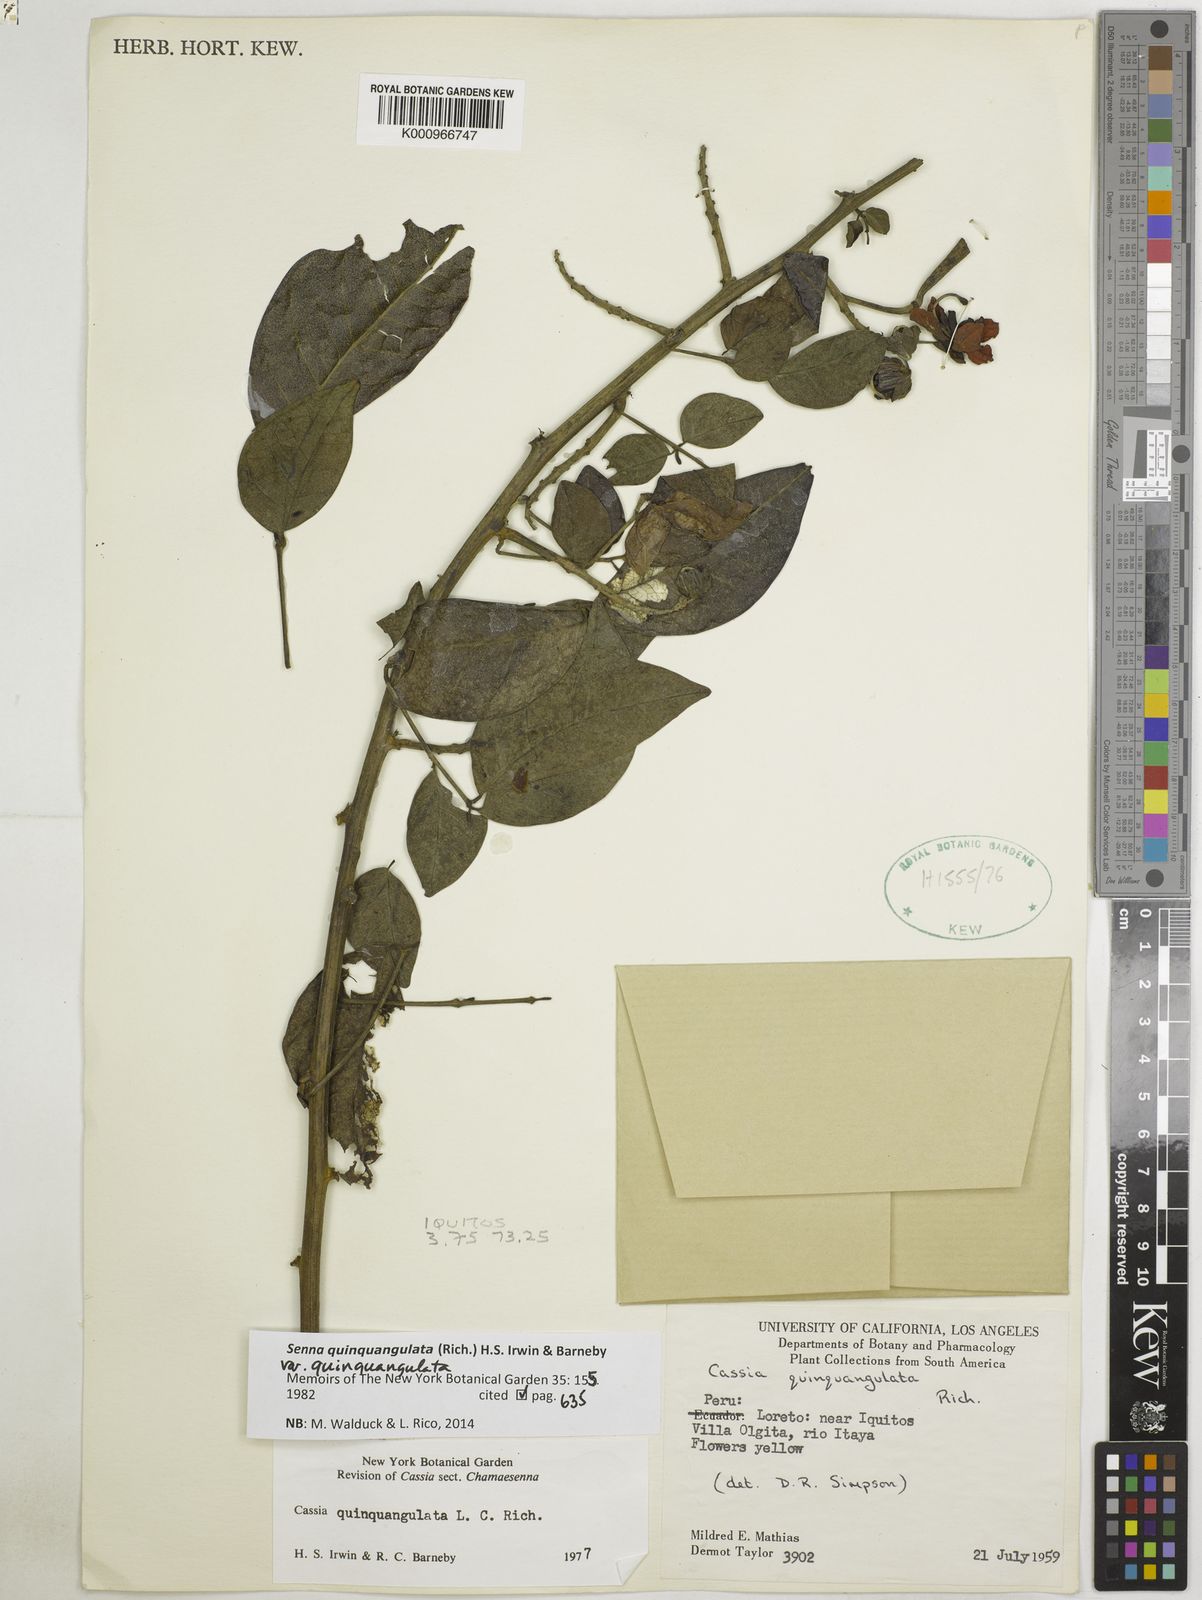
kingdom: Plantae
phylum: Tracheophyta
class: Magnoliopsida
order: Fabales
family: Fabaceae
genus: Senna
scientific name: Senna quinquangulata
